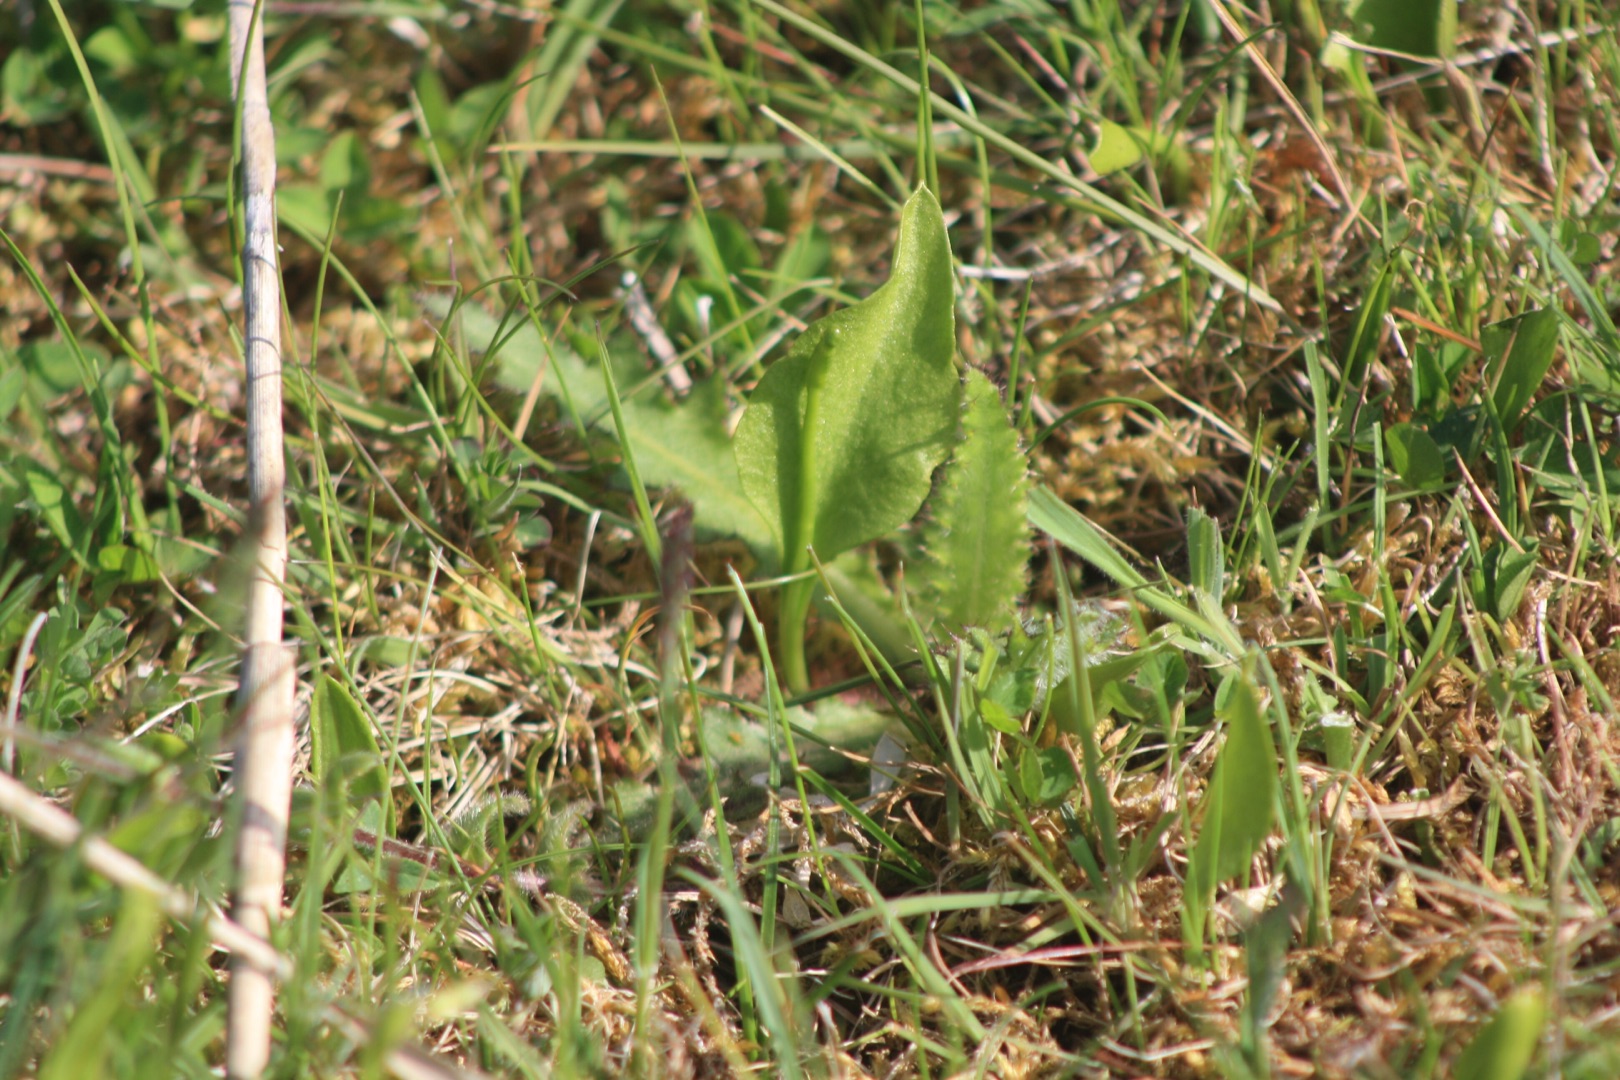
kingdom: Plantae
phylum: Tracheophyta
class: Polypodiopsida
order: Ophioglossales
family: Ophioglossaceae
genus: Ophioglossum
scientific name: Ophioglossum vulgatum
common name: Slangetunge
